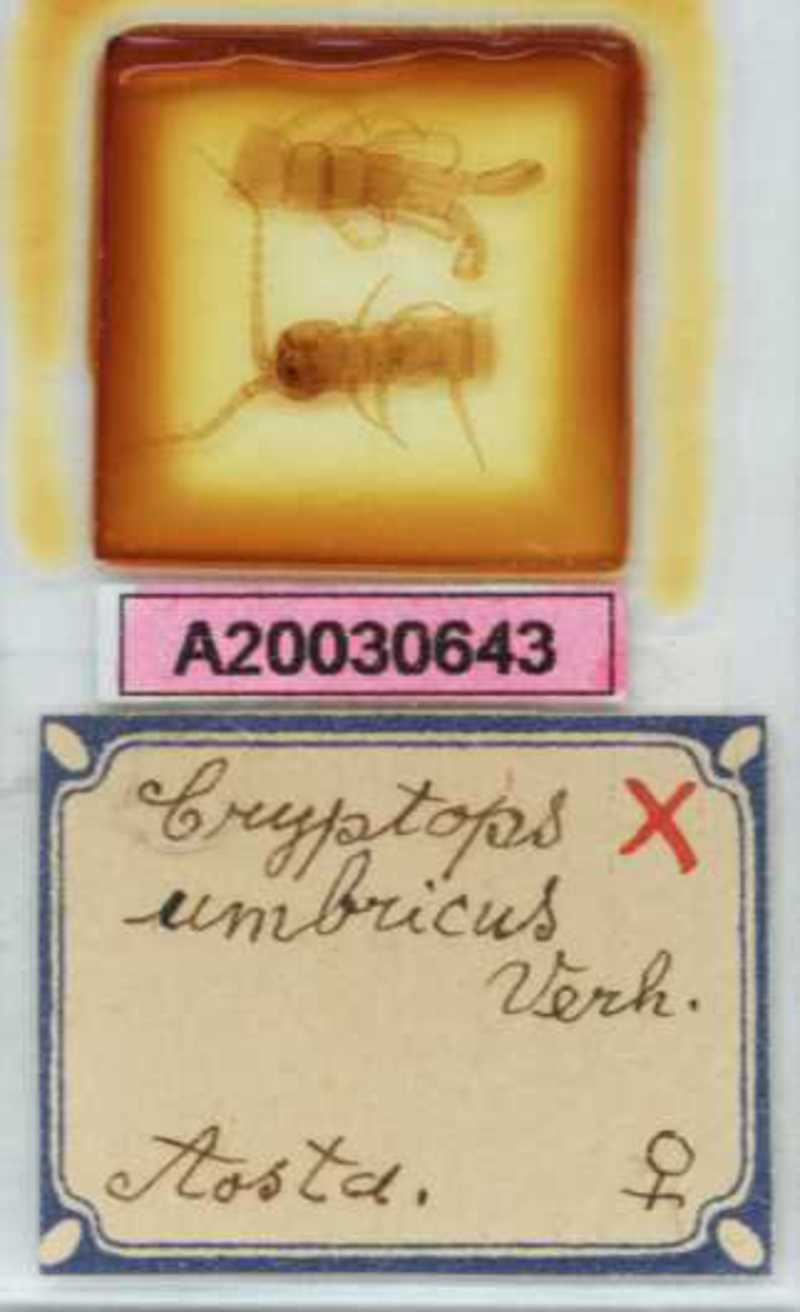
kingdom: Animalia
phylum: Arthropoda
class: Chilopoda
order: Scolopendromorpha
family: Cryptopidae
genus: Cryptops
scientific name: Cryptops umbricus
